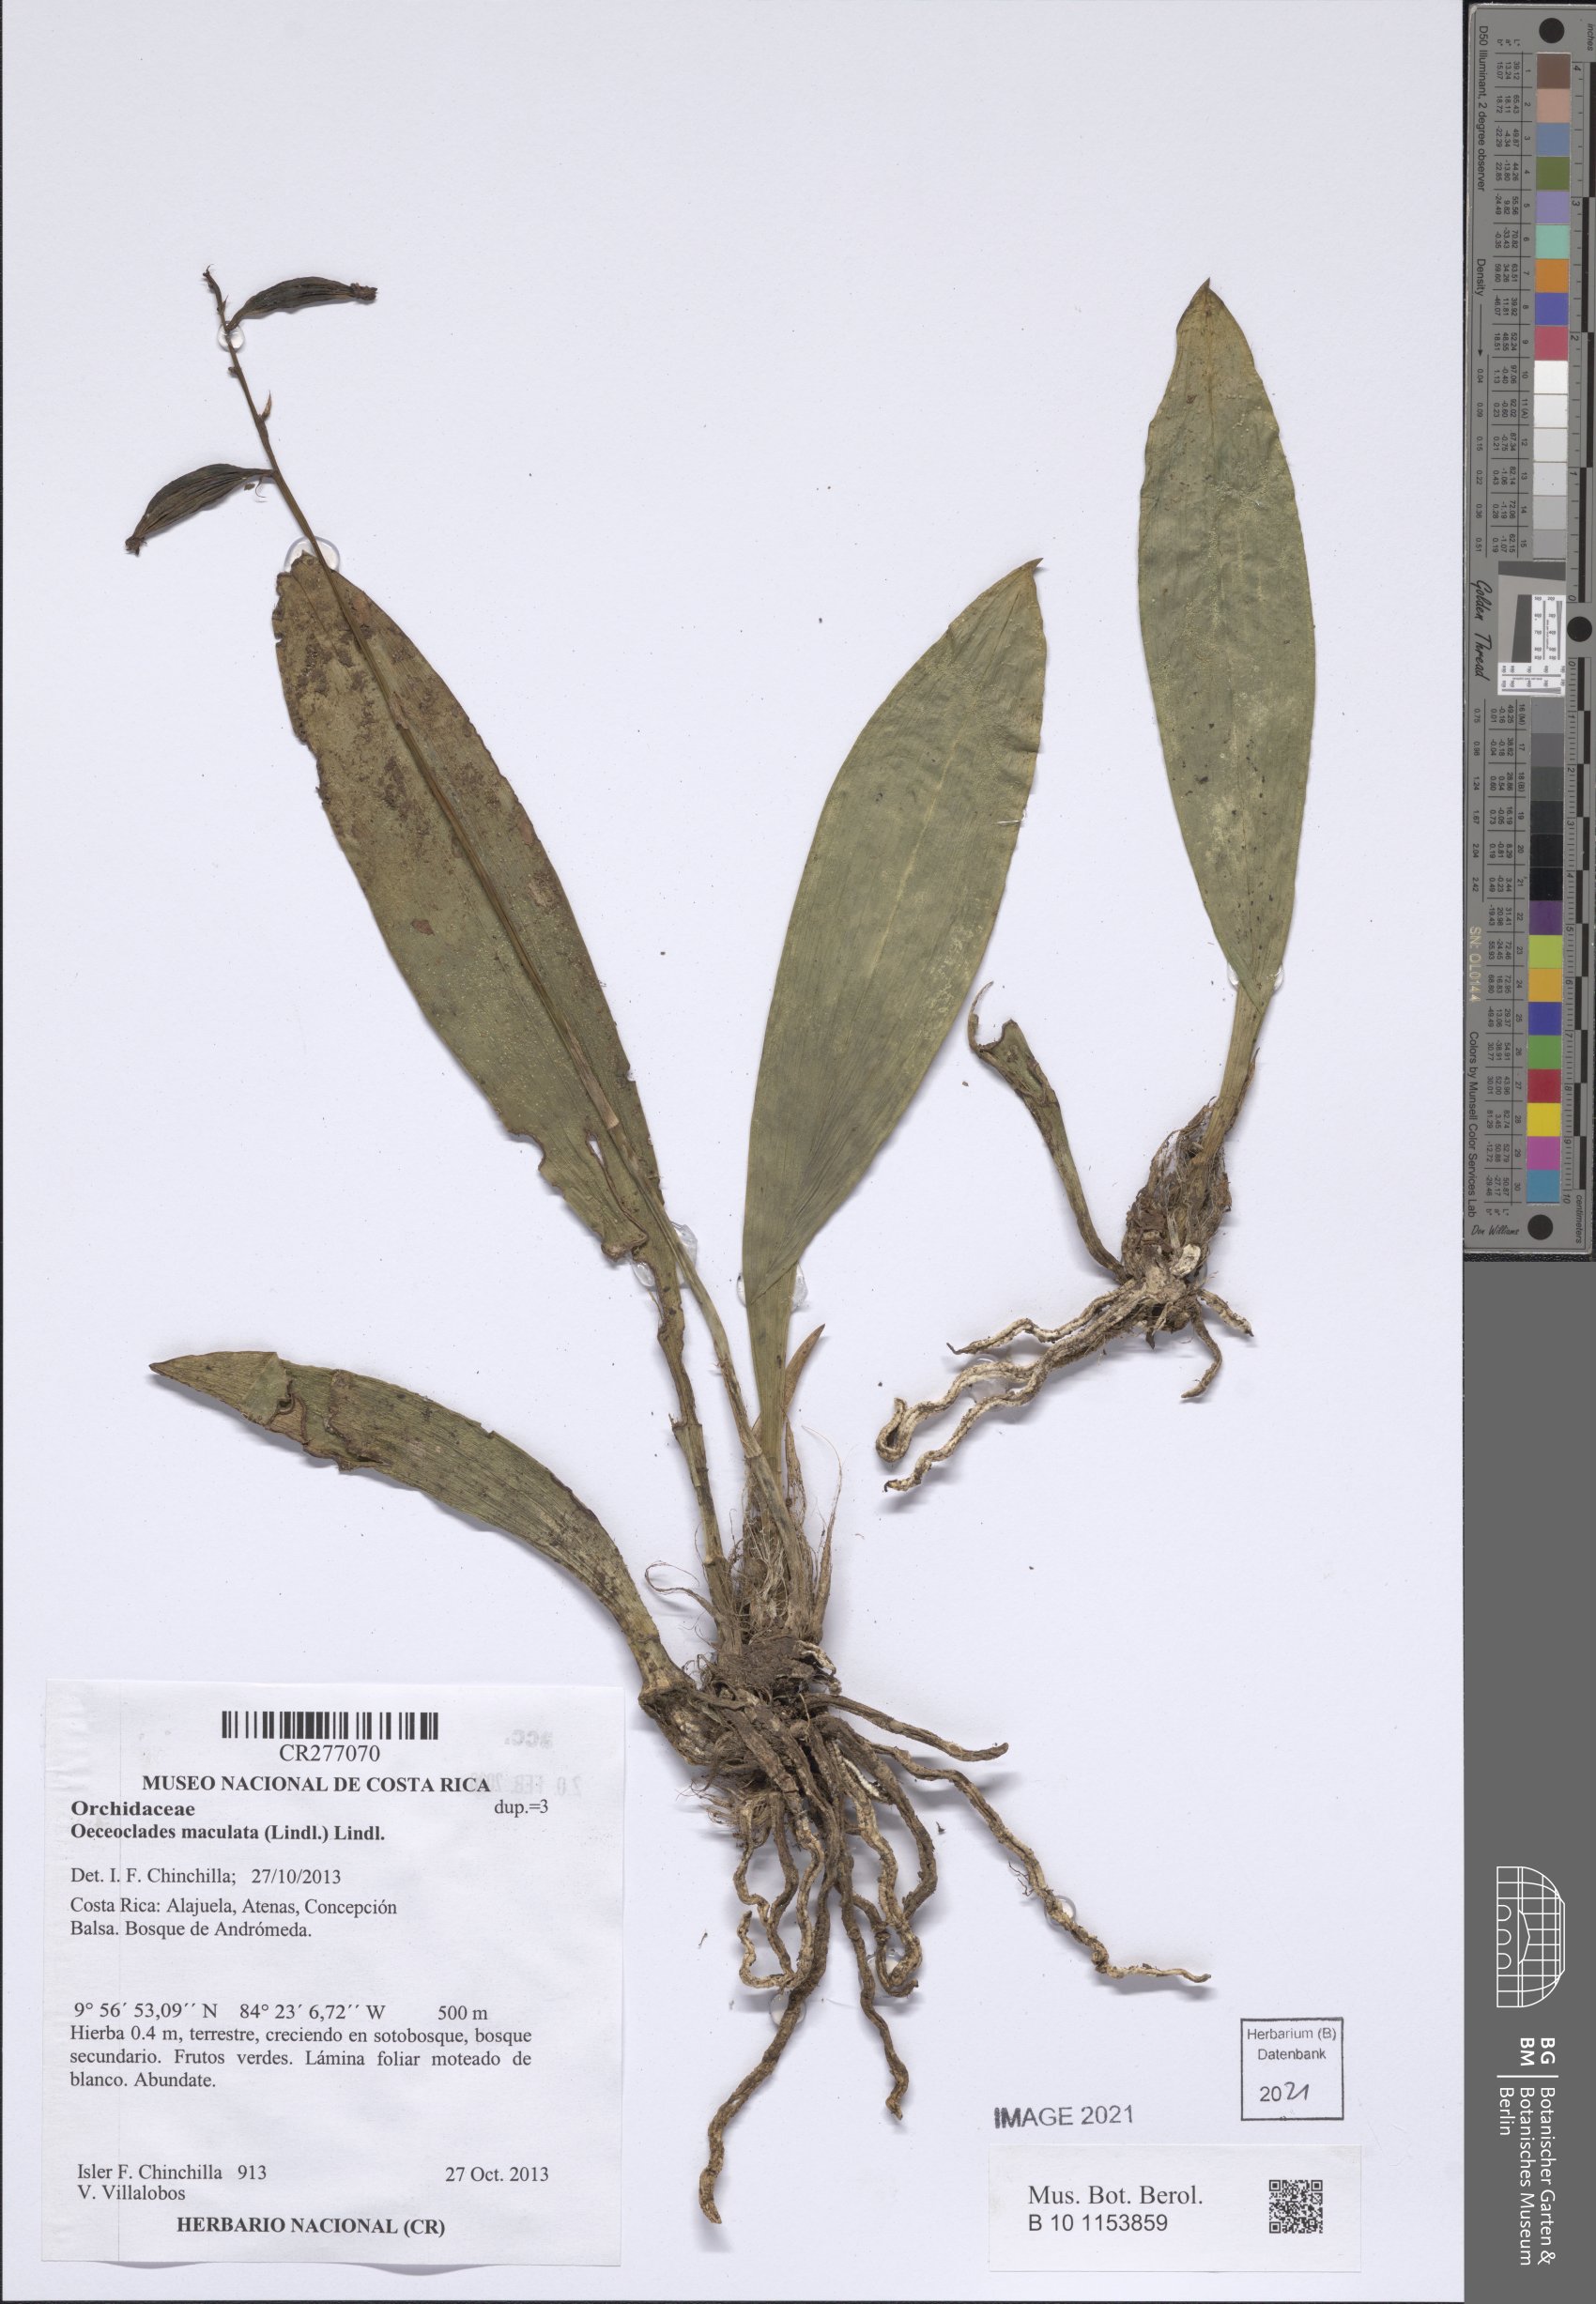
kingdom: Plantae
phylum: Tracheophyta
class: Liliopsida
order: Asparagales
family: Orchidaceae
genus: Eulophia
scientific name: Eulophia maculata
